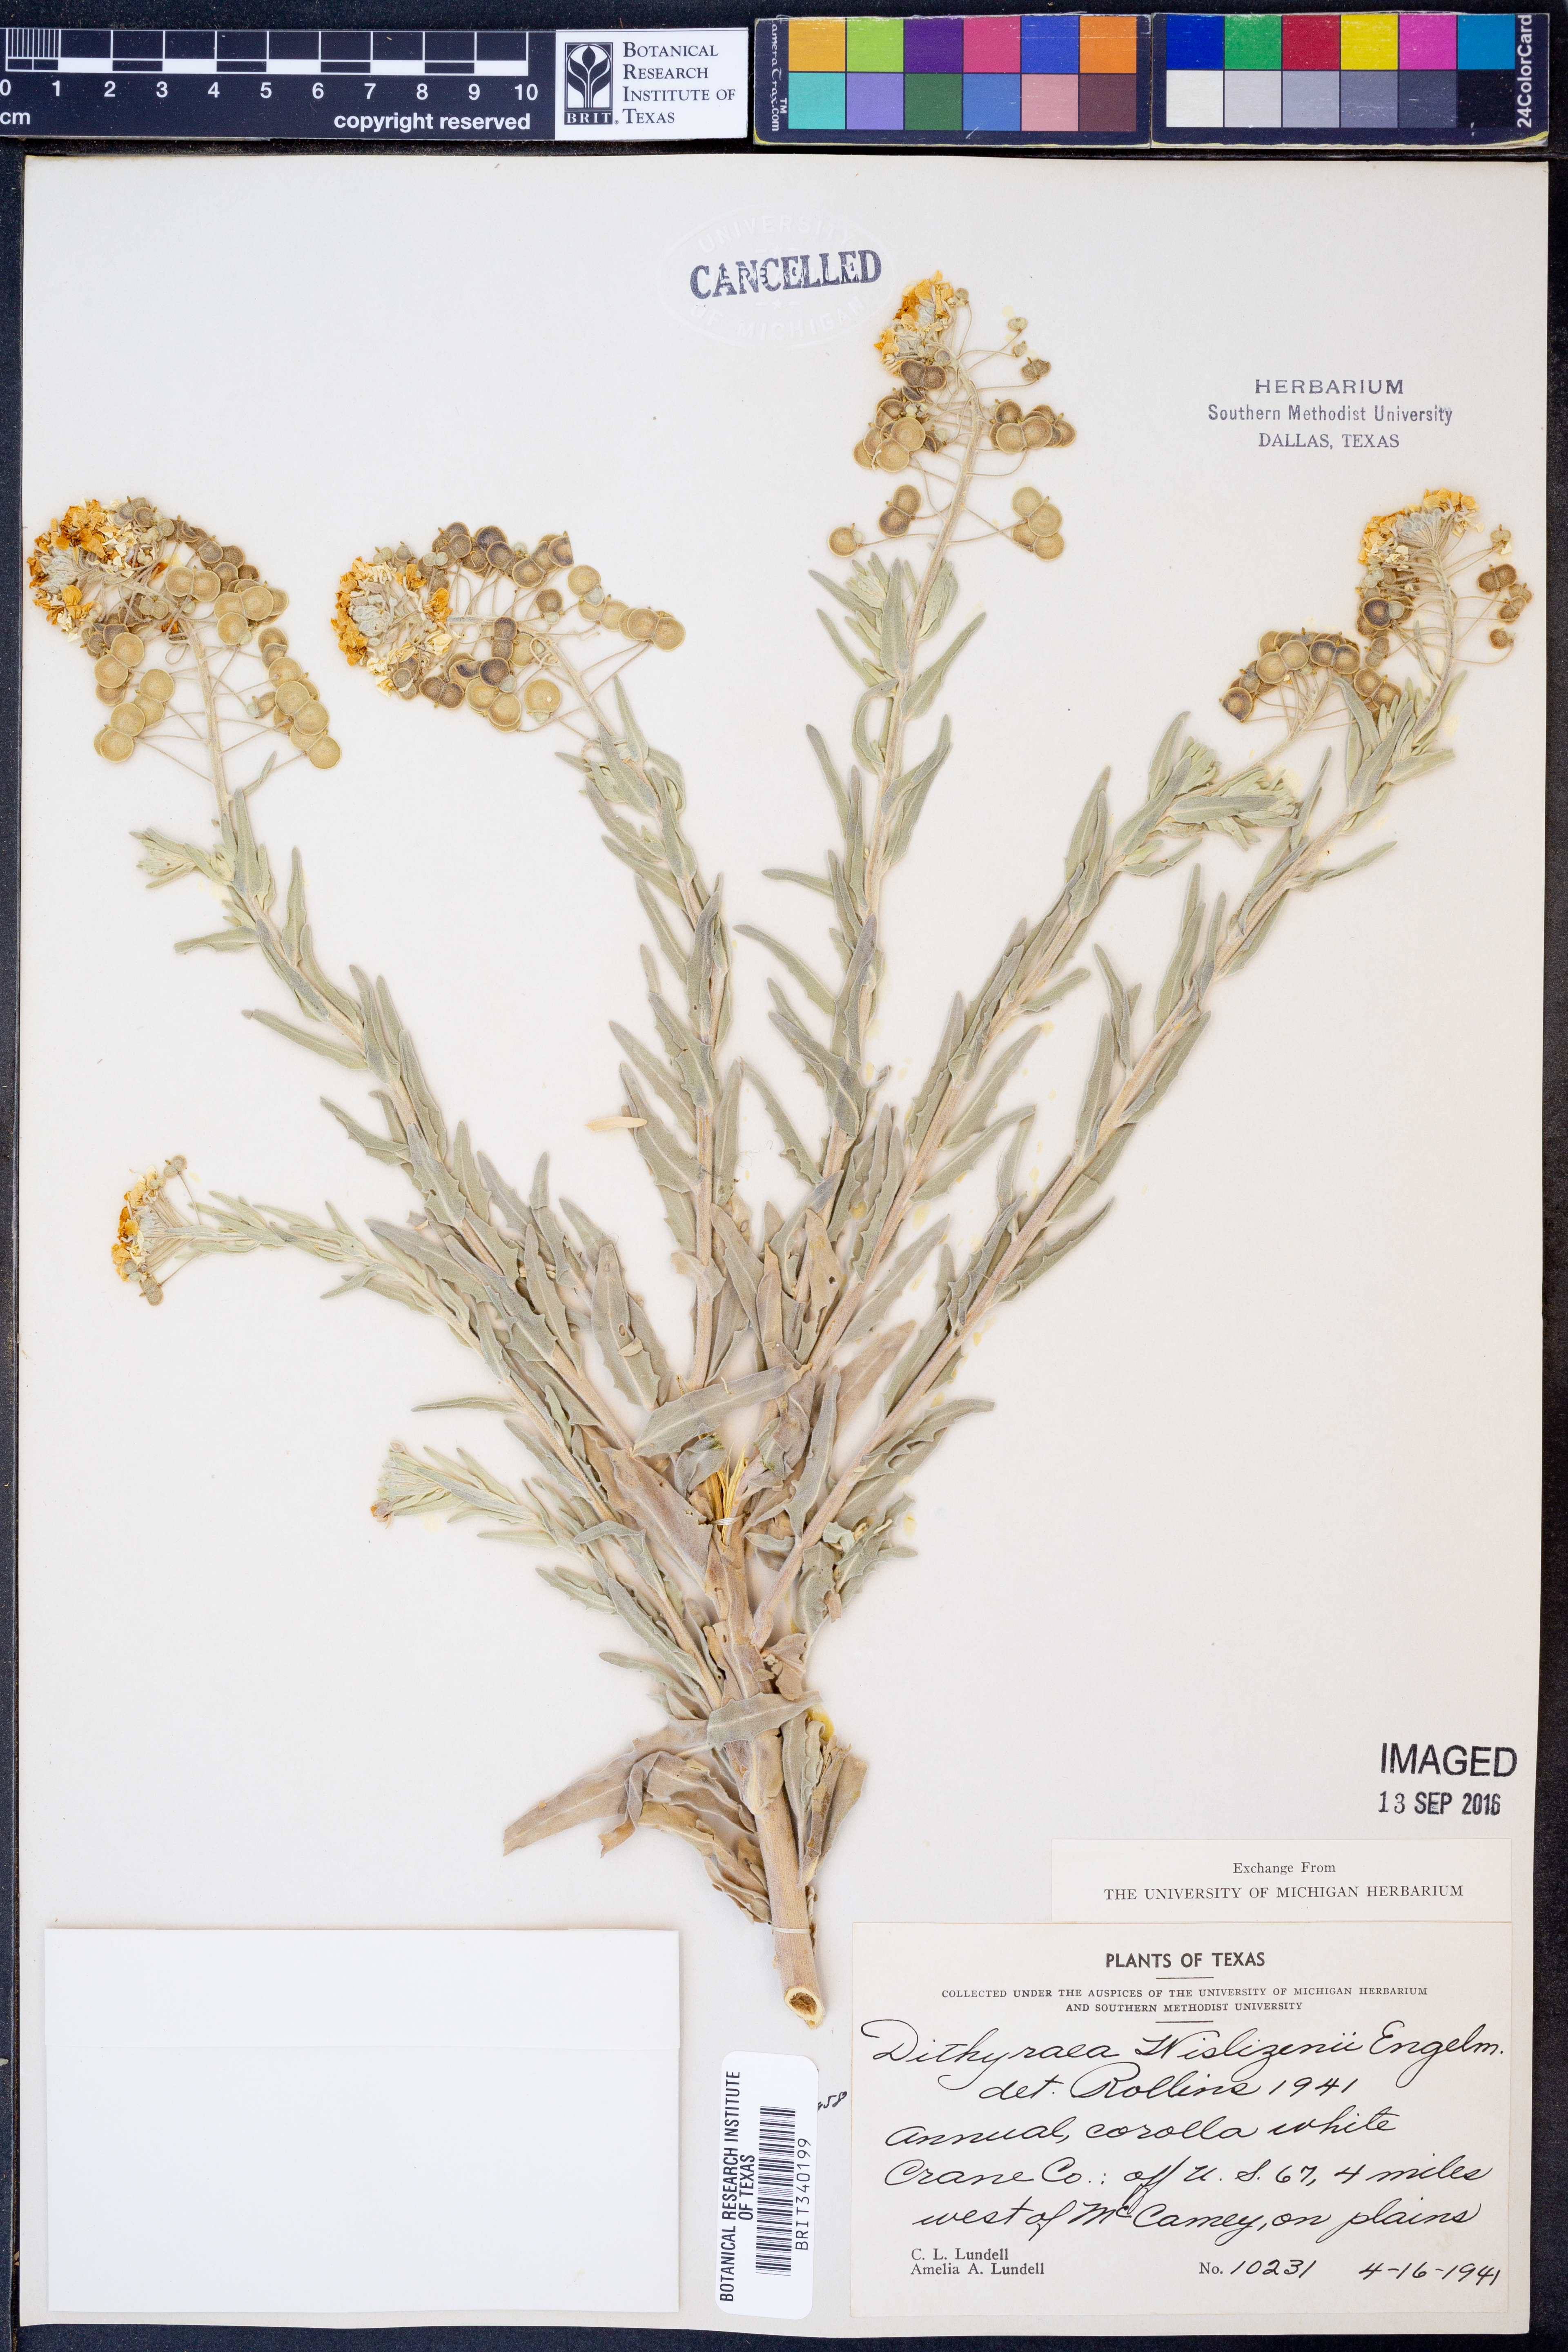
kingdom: Plantae
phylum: Tracheophyta
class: Magnoliopsida
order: Brassicales
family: Brassicaceae
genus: Dimorphocarpa
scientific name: Dimorphocarpa wislizenii
